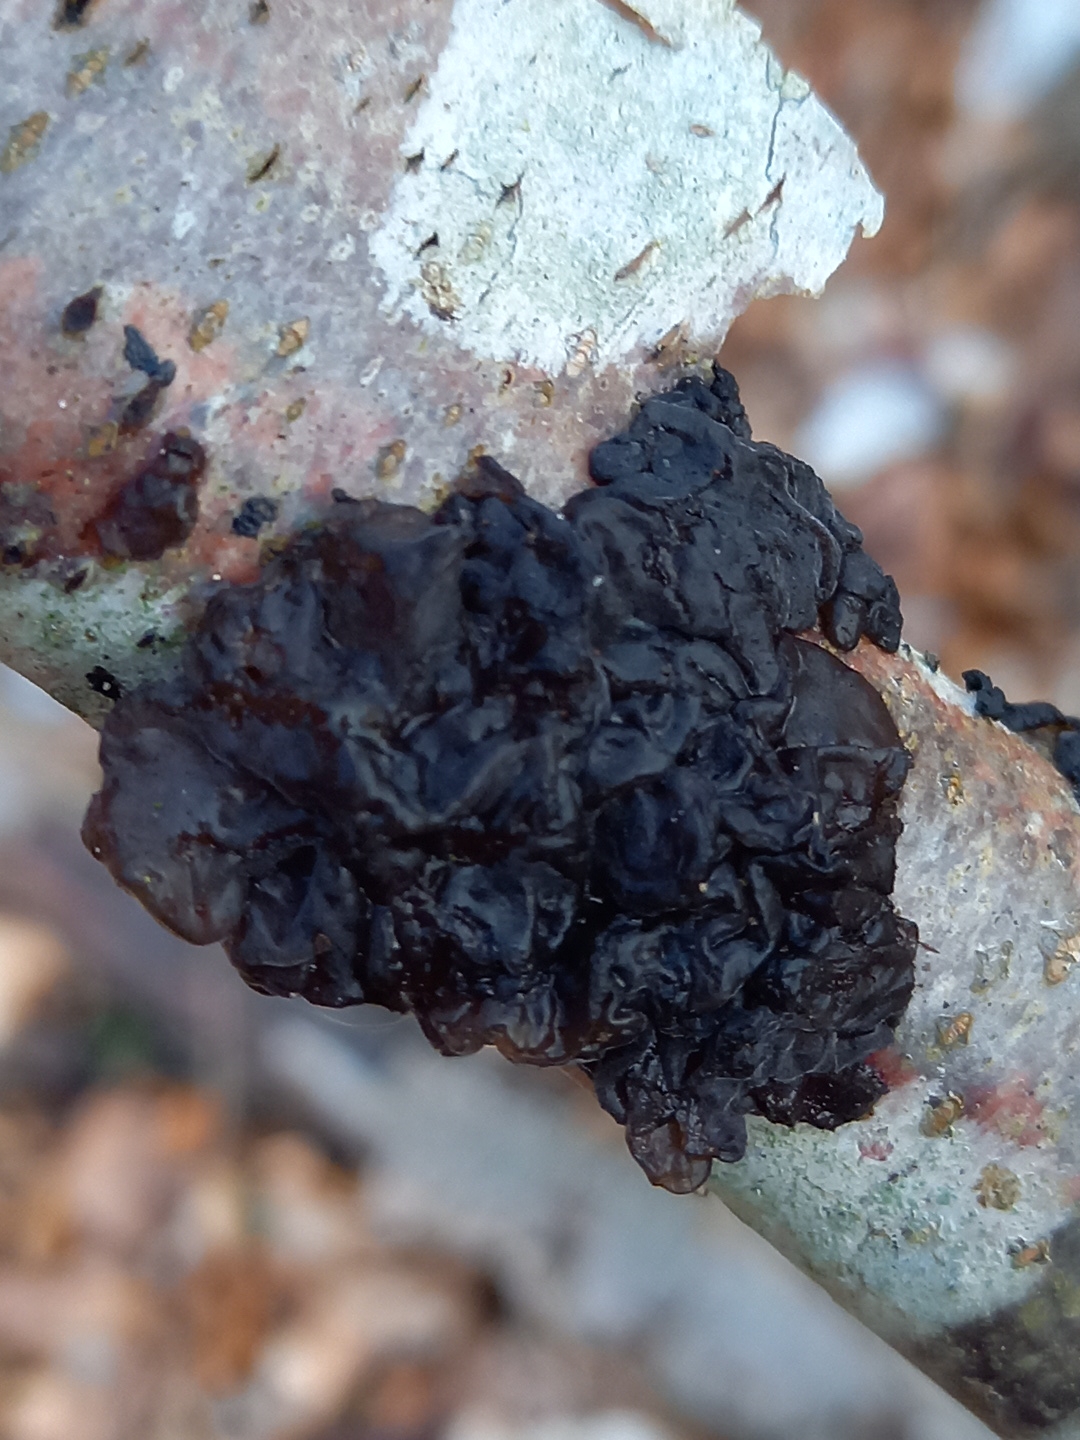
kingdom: Fungi
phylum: Basidiomycota
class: Agaricomycetes
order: Auriculariales
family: Auriculariaceae
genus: Exidia
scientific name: Exidia nigricans
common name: almindelig bævretop
